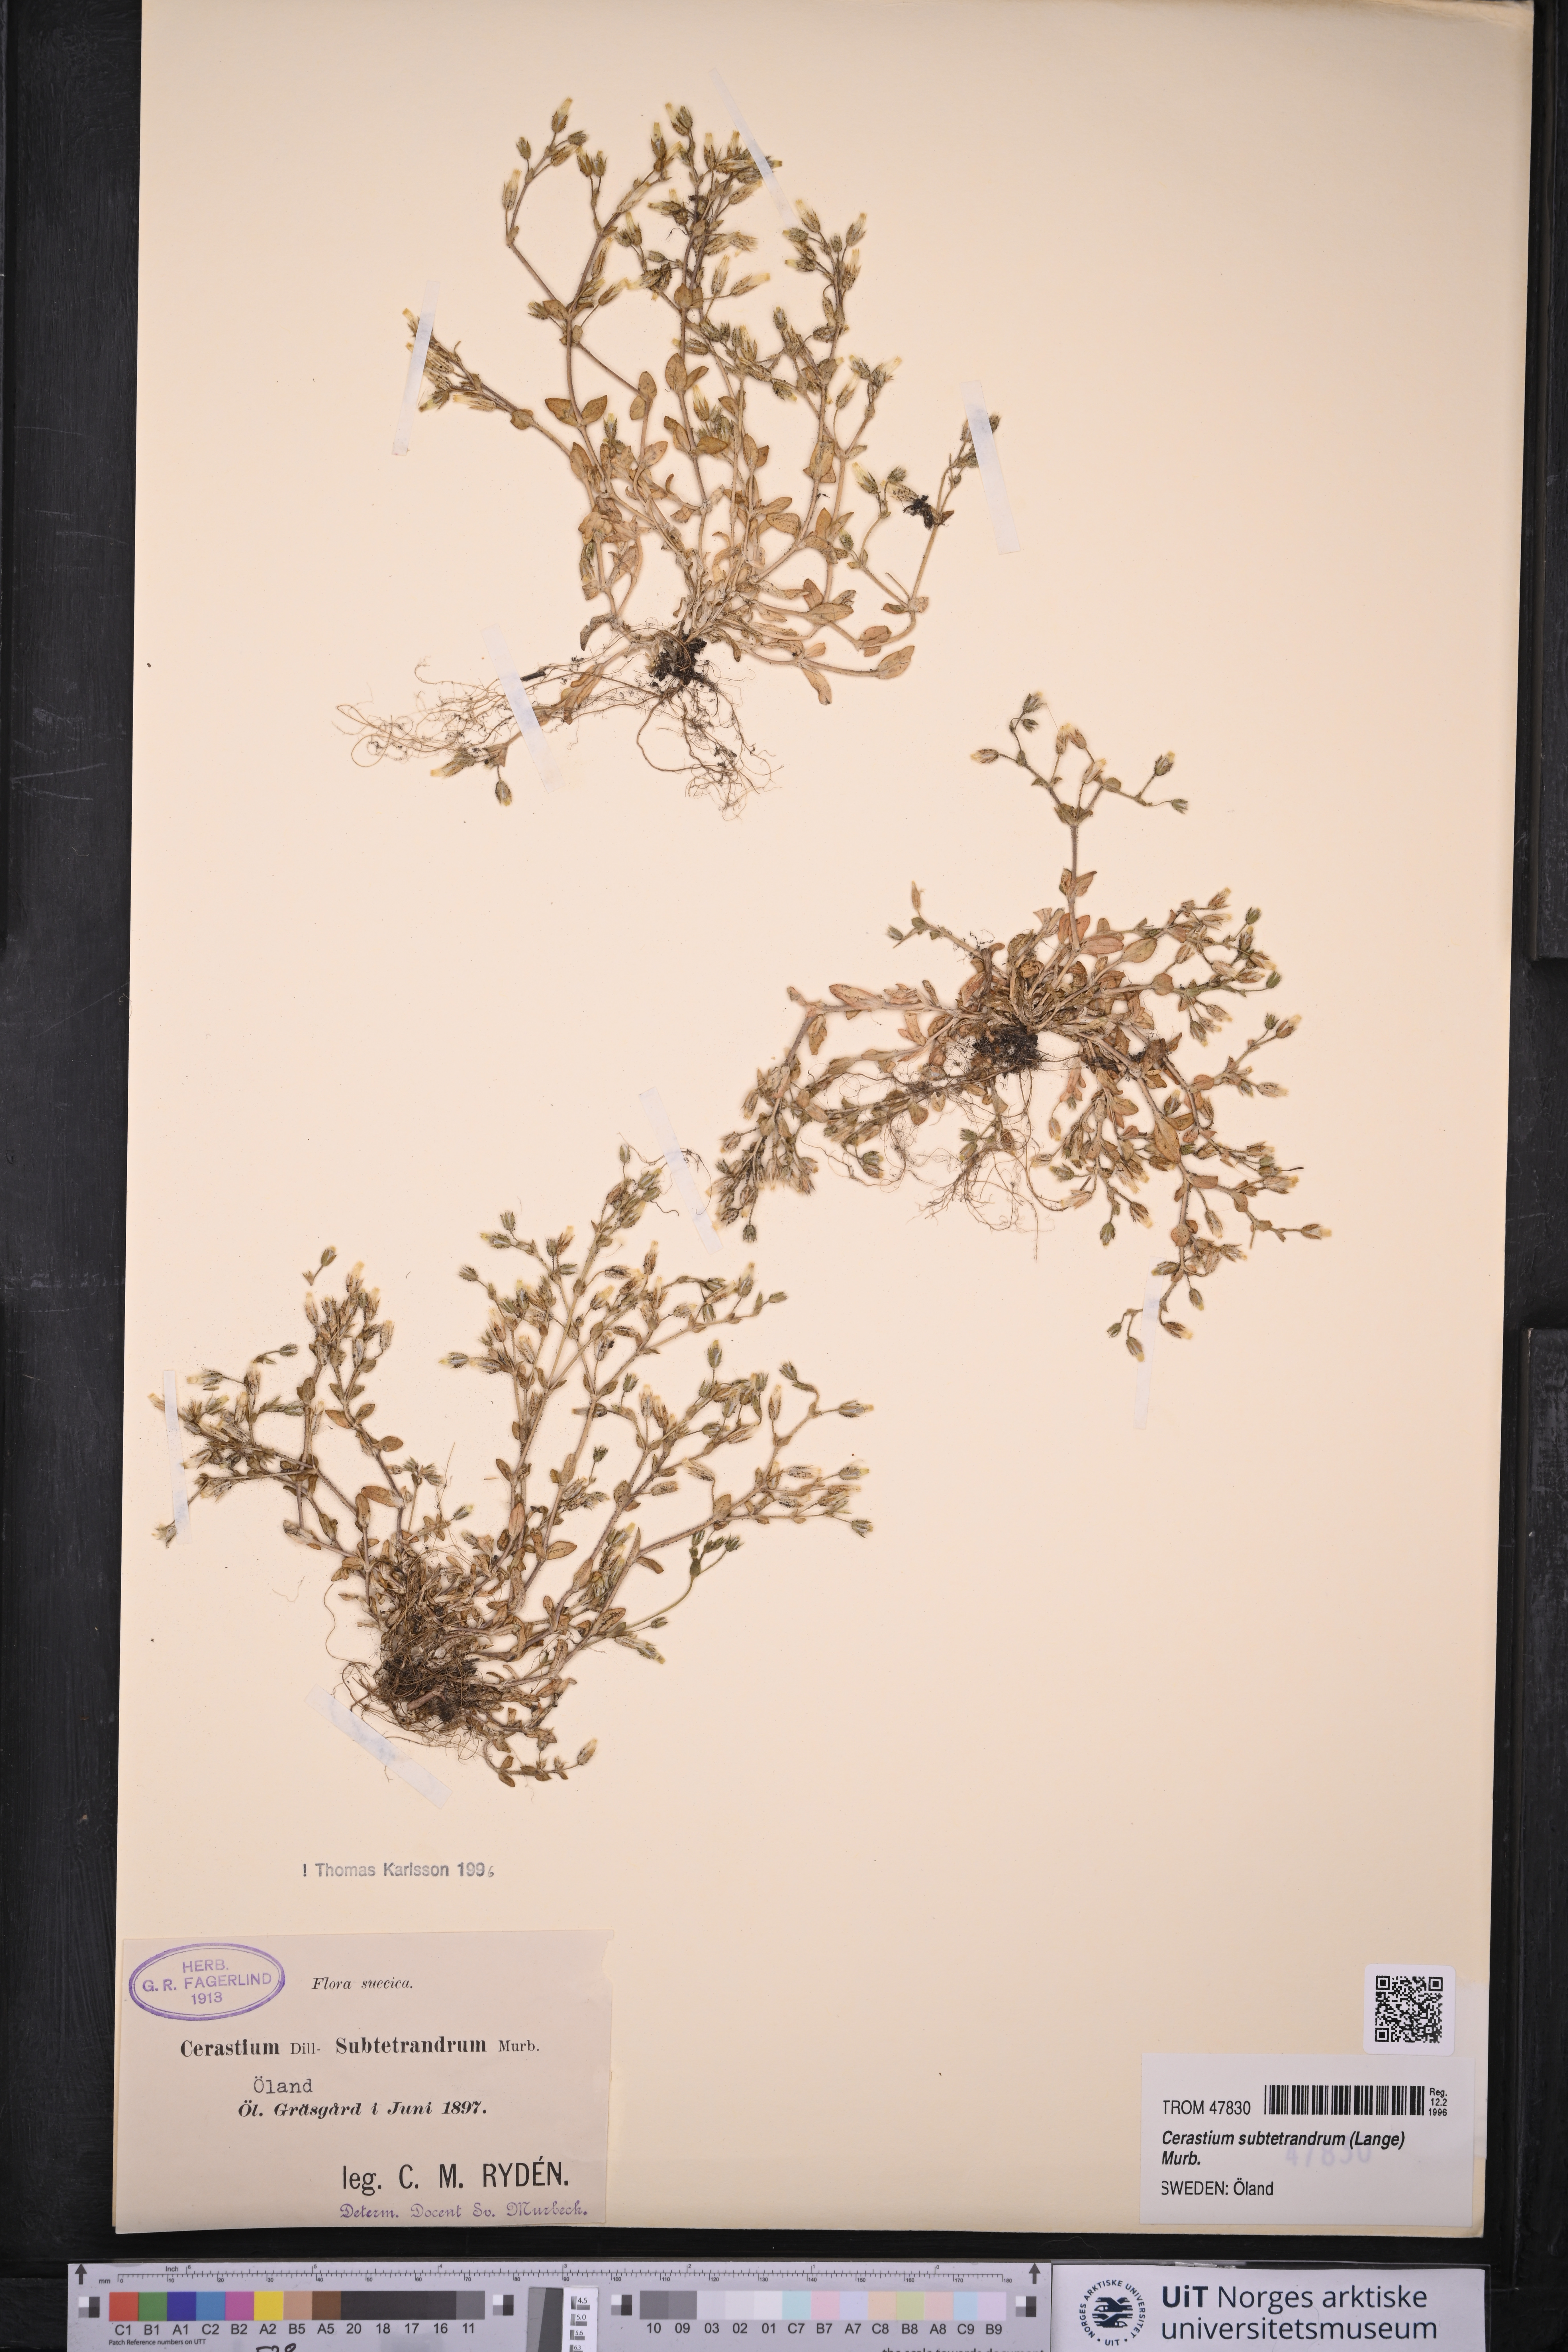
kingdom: Plantae
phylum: Tracheophyta
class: Magnoliopsida
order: Caryophyllales
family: Caryophyllaceae
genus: Cerastium
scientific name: Cerastium subtetrandrum
